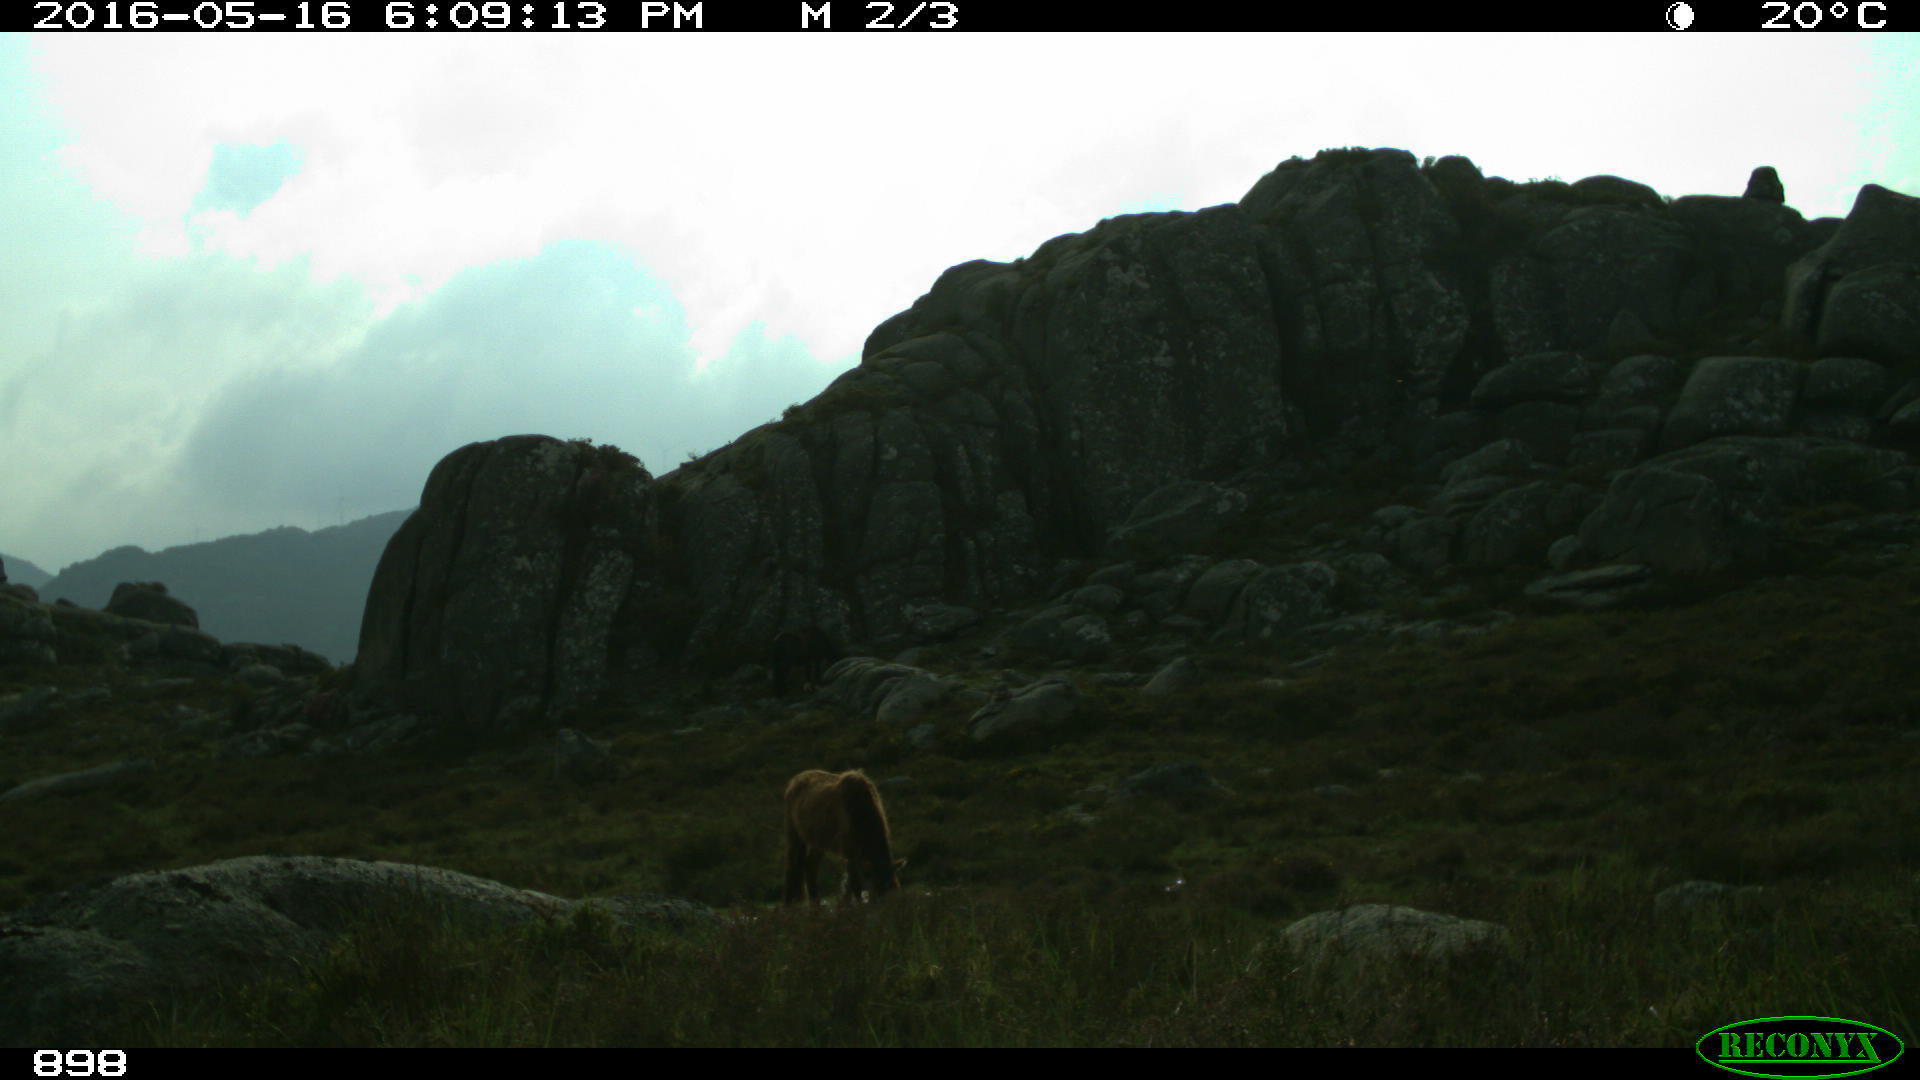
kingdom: Animalia
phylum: Chordata
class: Mammalia
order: Perissodactyla
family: Equidae
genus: Equus
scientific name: Equus caballus
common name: Horse
